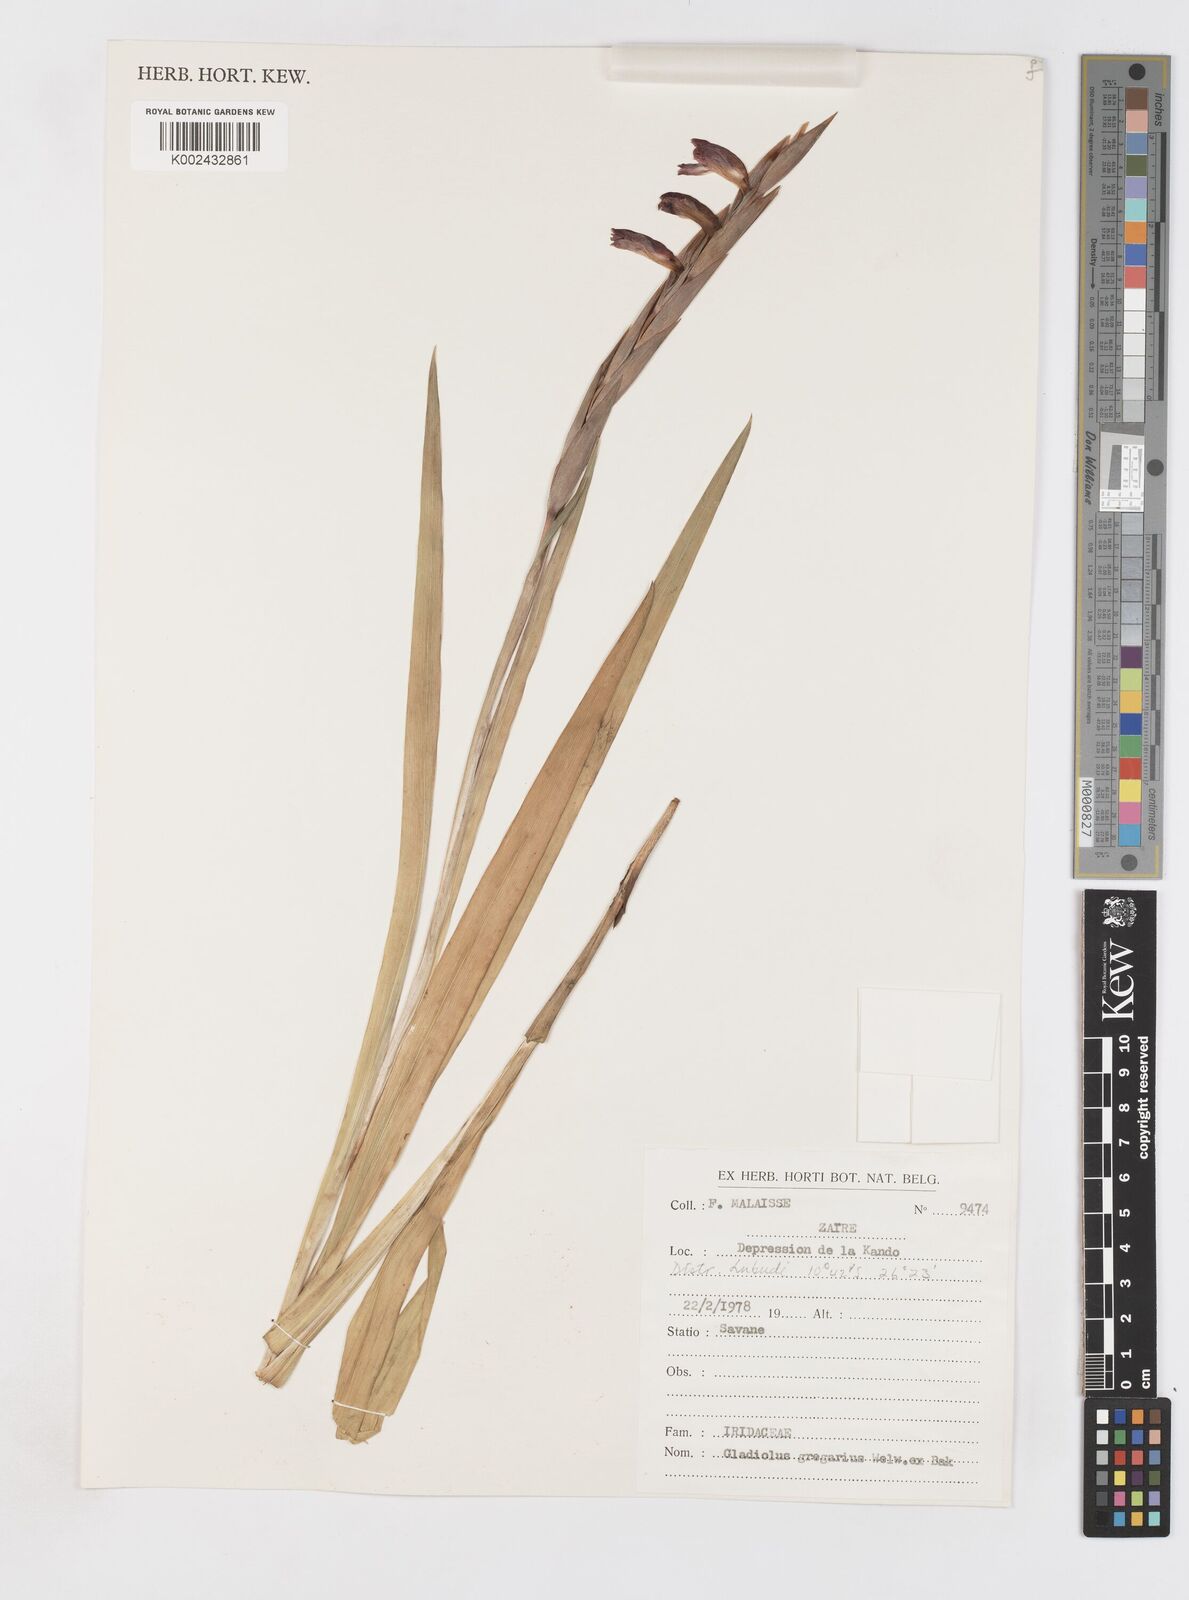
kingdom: Plantae
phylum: Tracheophyta
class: Liliopsida
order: Asparagales
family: Iridaceae
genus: Gladiolus
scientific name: Gladiolus gregarius
